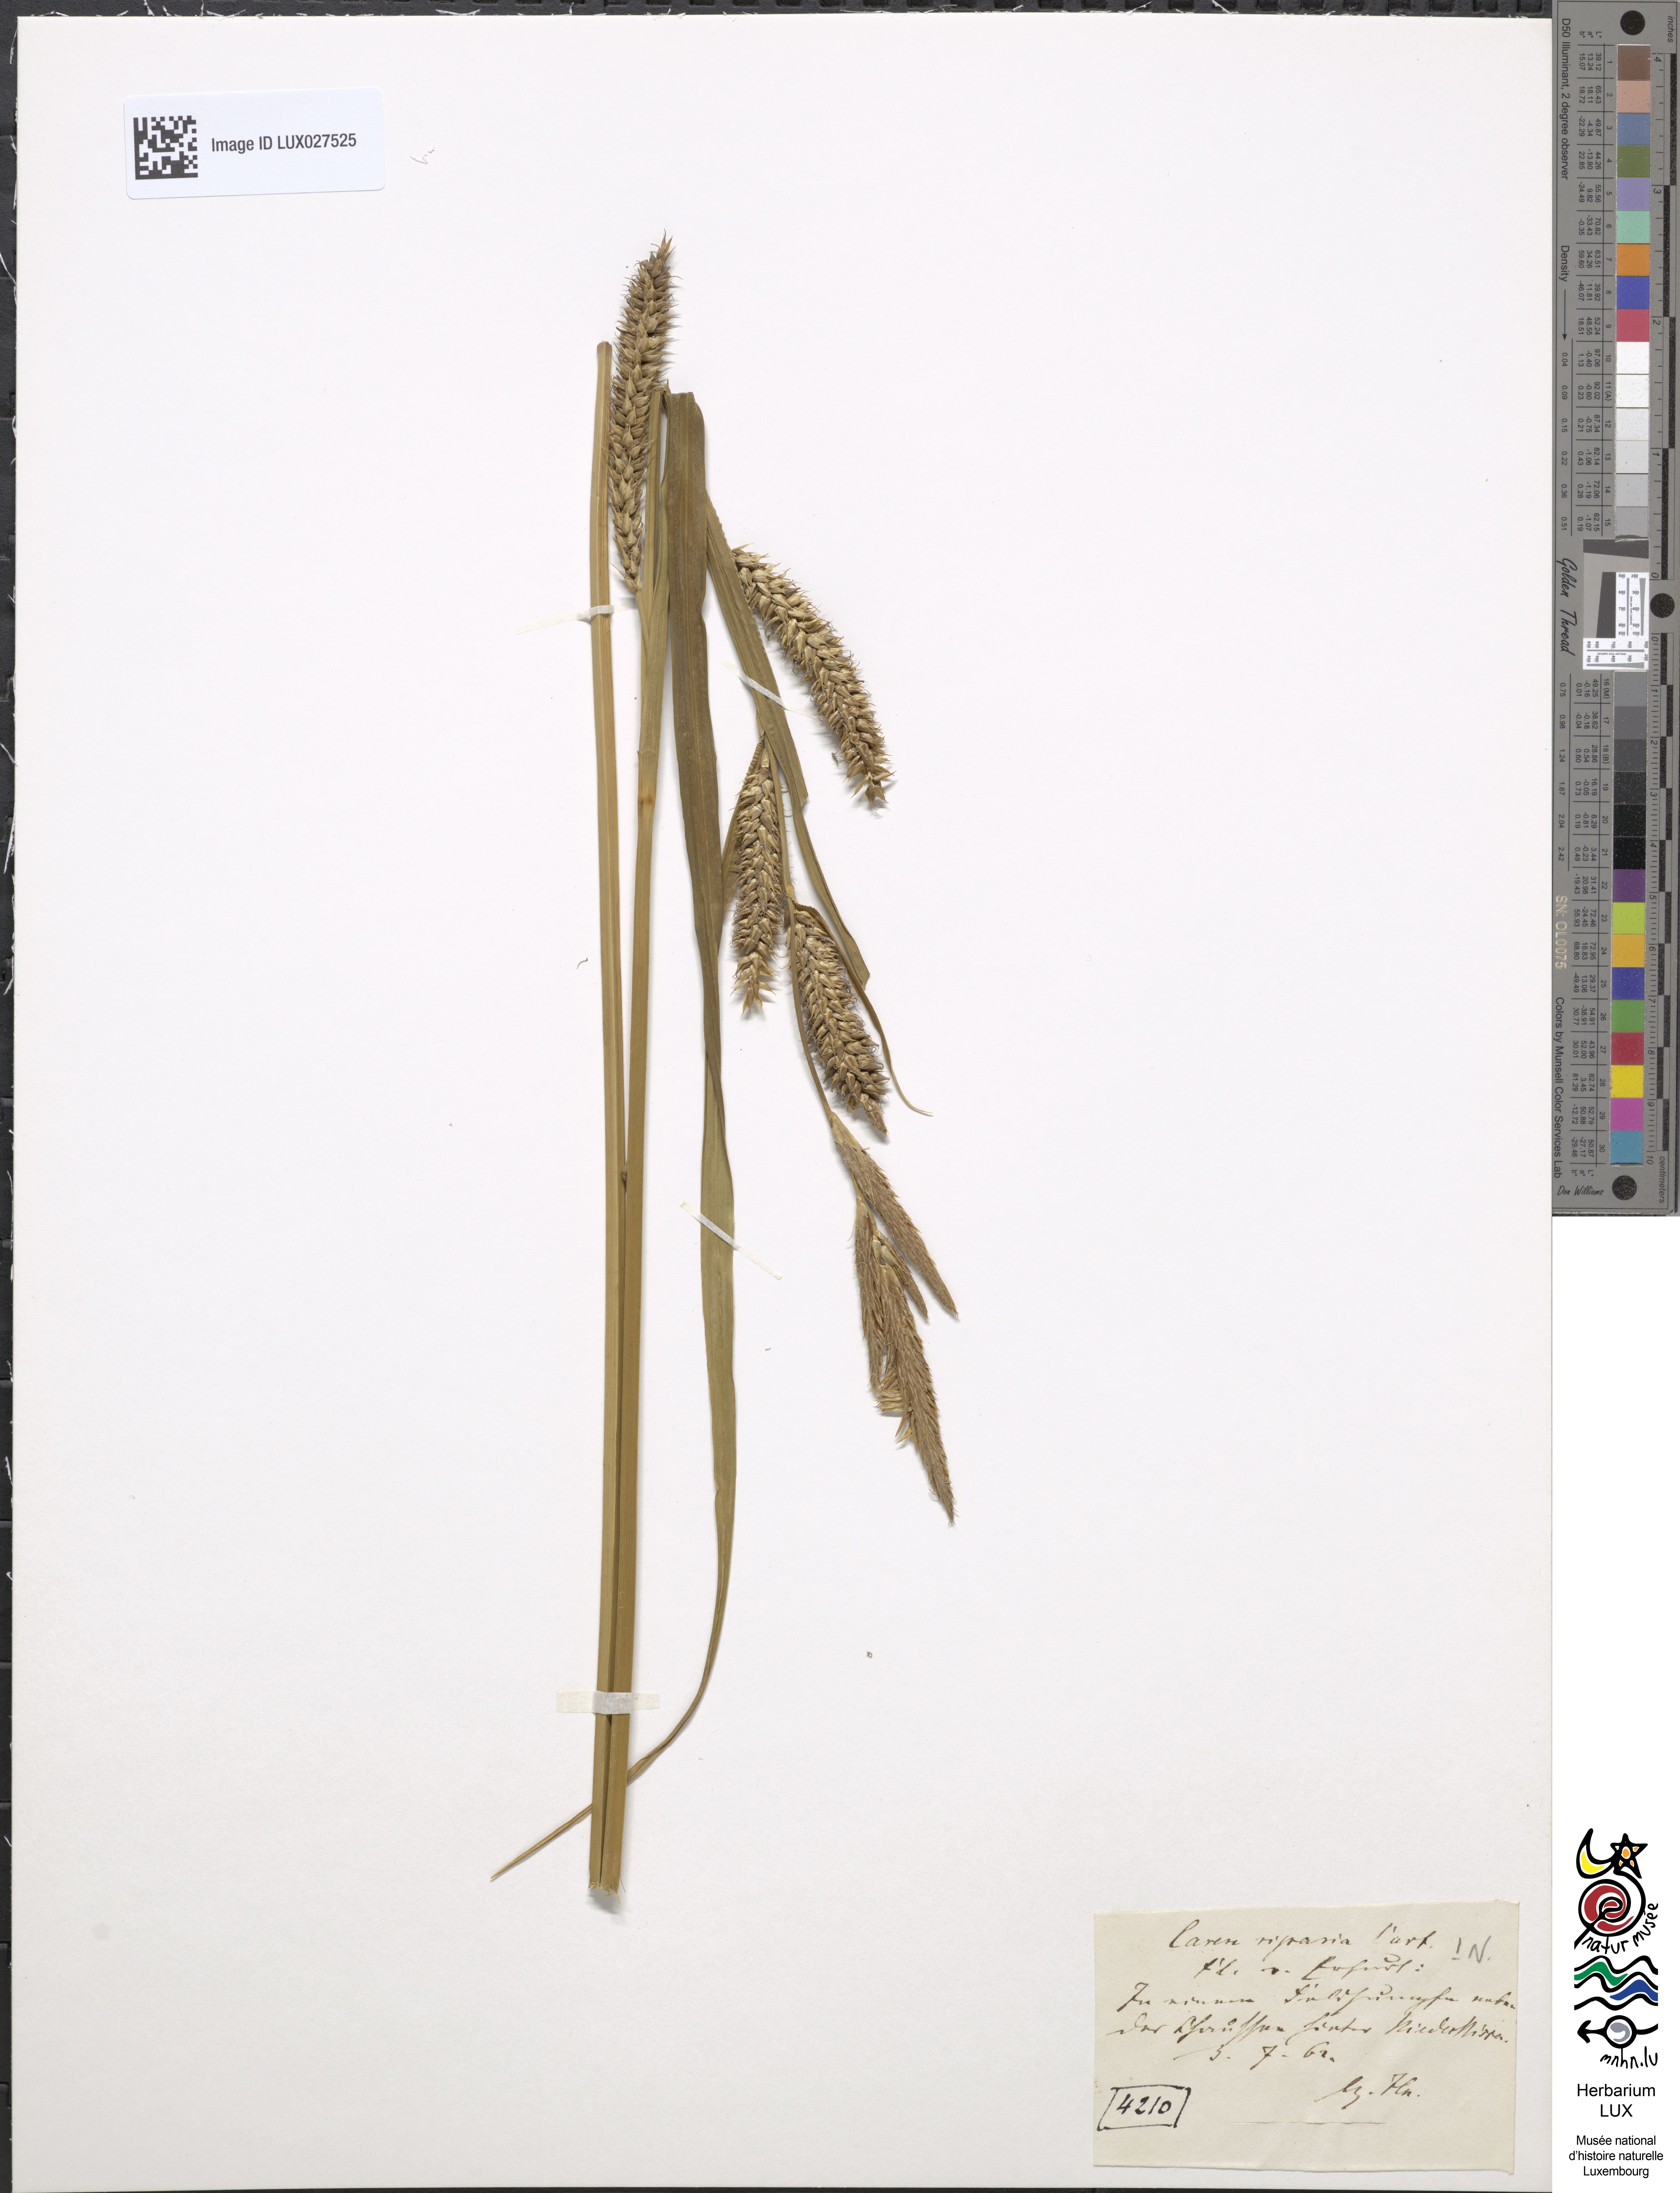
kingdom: Plantae
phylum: Tracheophyta
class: Liliopsida
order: Poales
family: Cyperaceae
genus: Carex
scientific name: Carex riparia
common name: Greater pond-sedge
